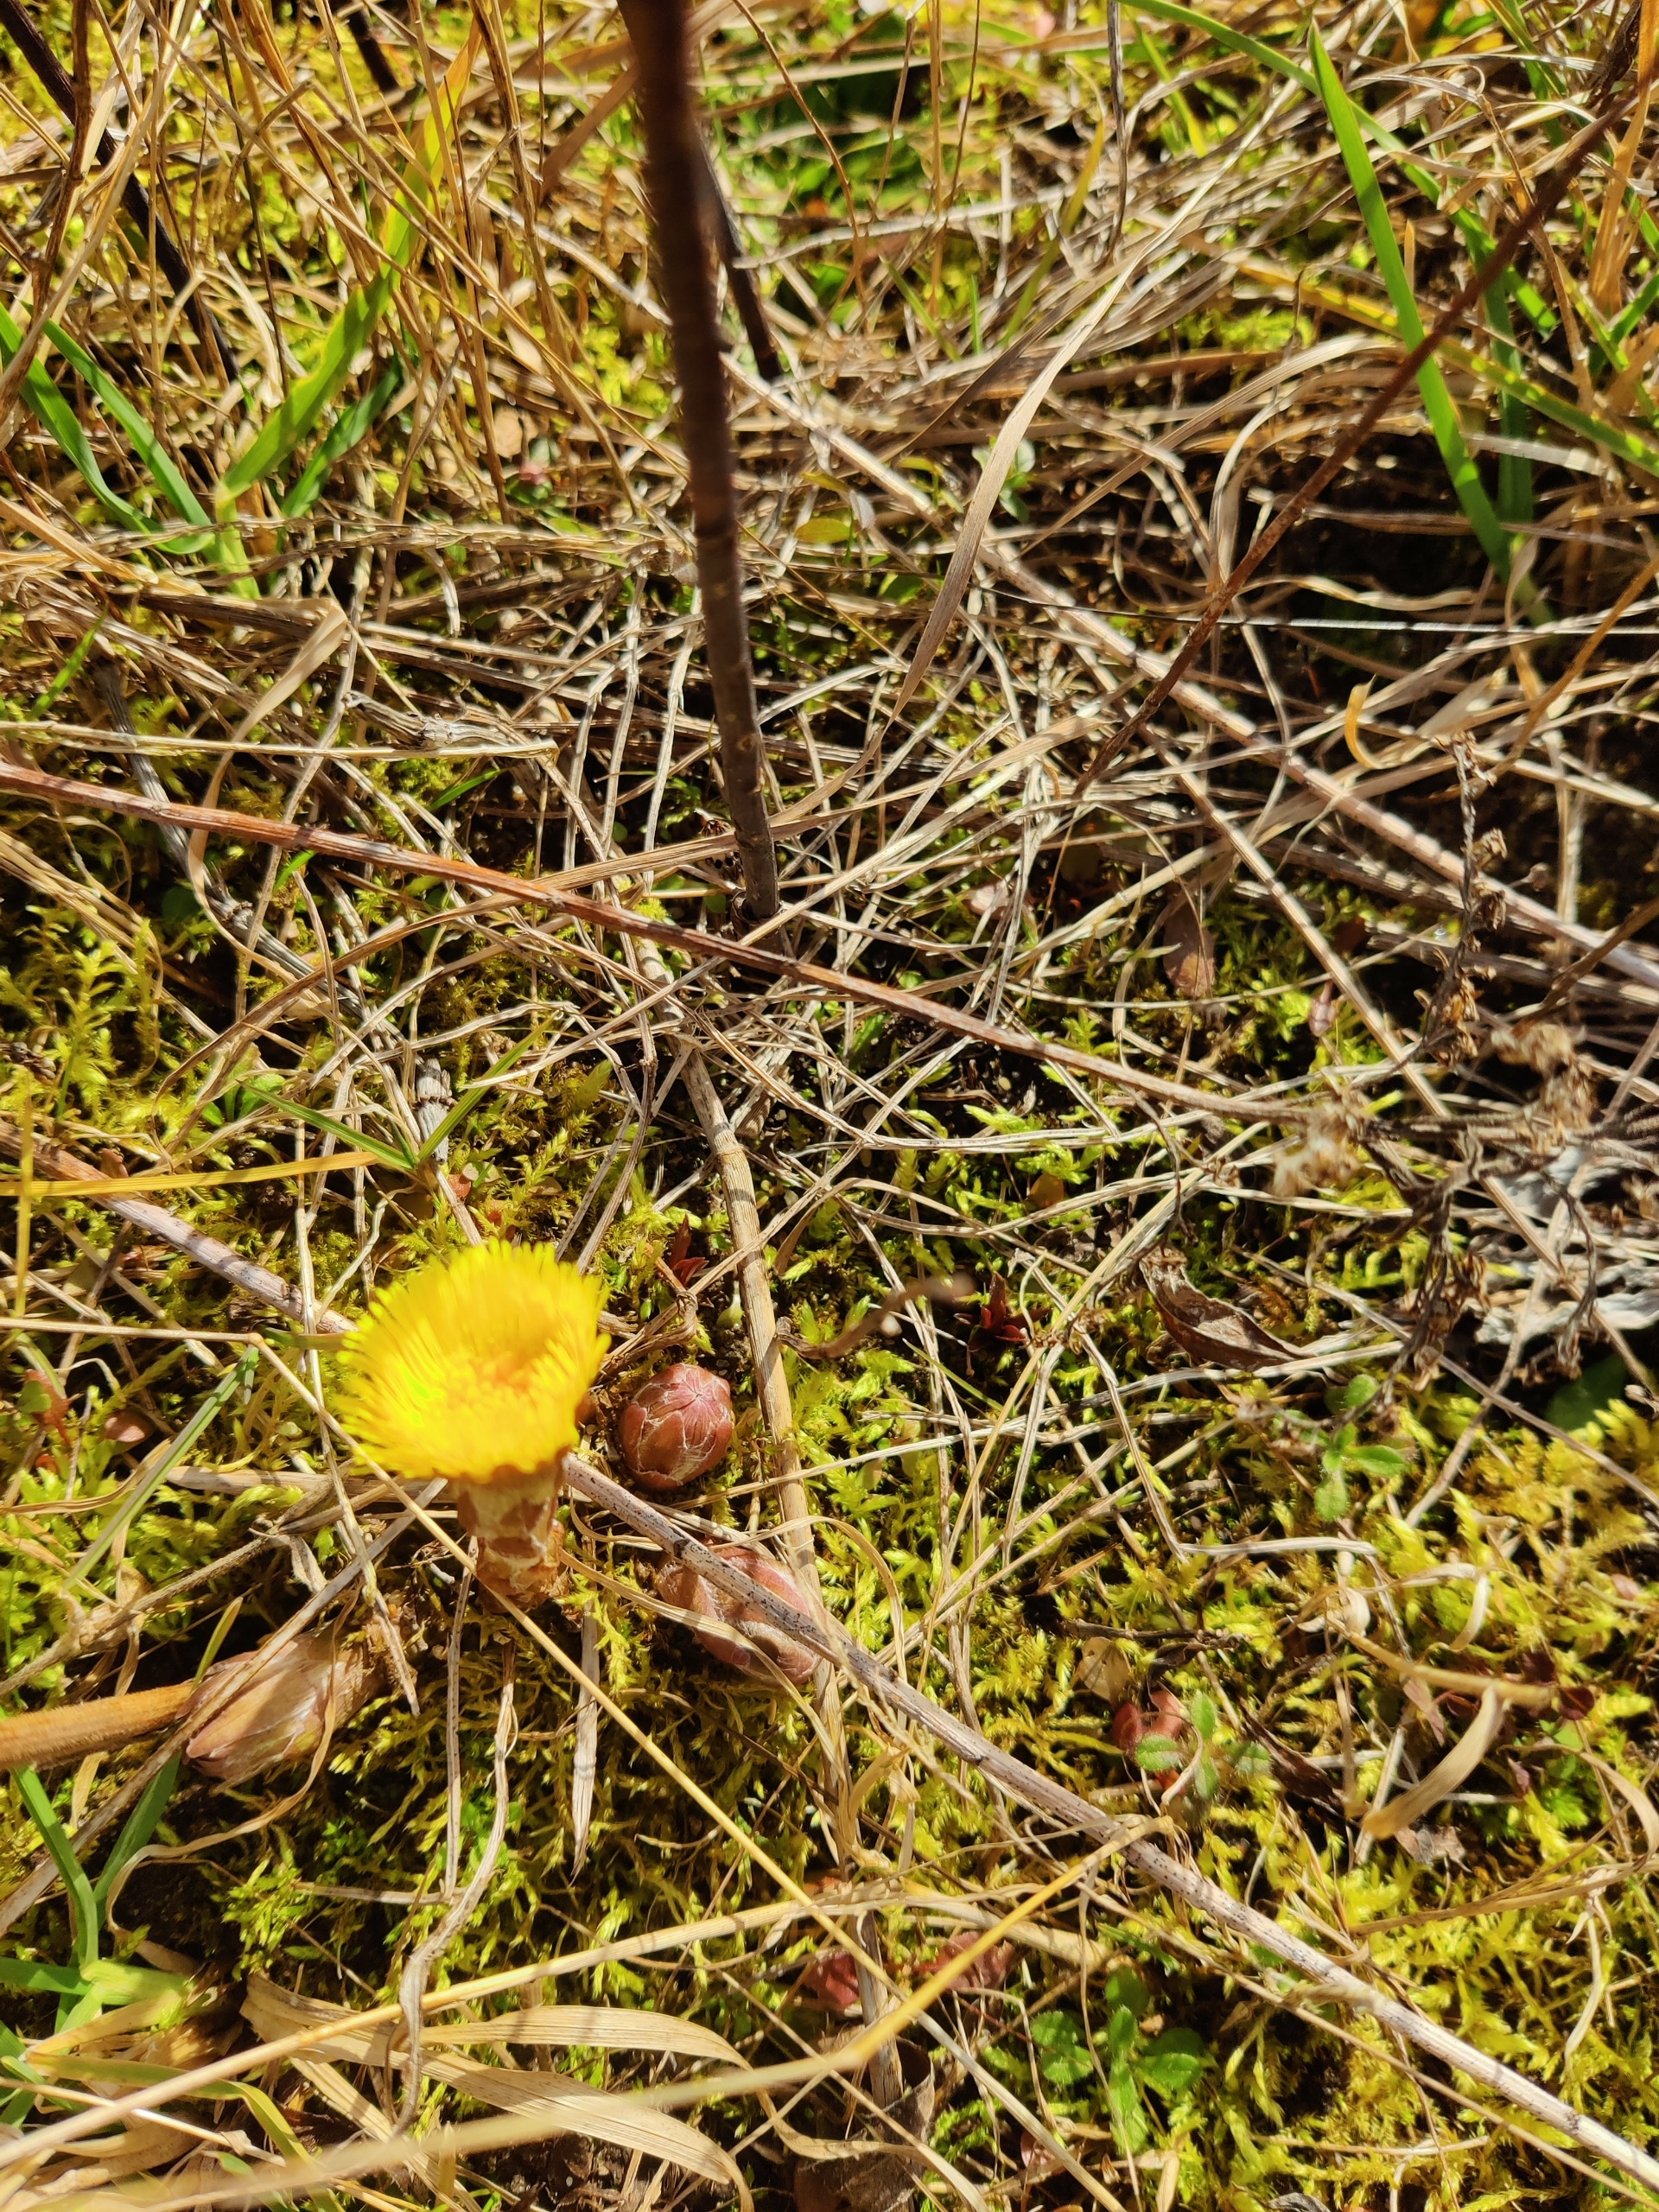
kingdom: Plantae
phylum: Tracheophyta
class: Magnoliopsida
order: Asterales
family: Asteraceae
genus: Tussilago
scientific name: Tussilago farfara
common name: Følfod
